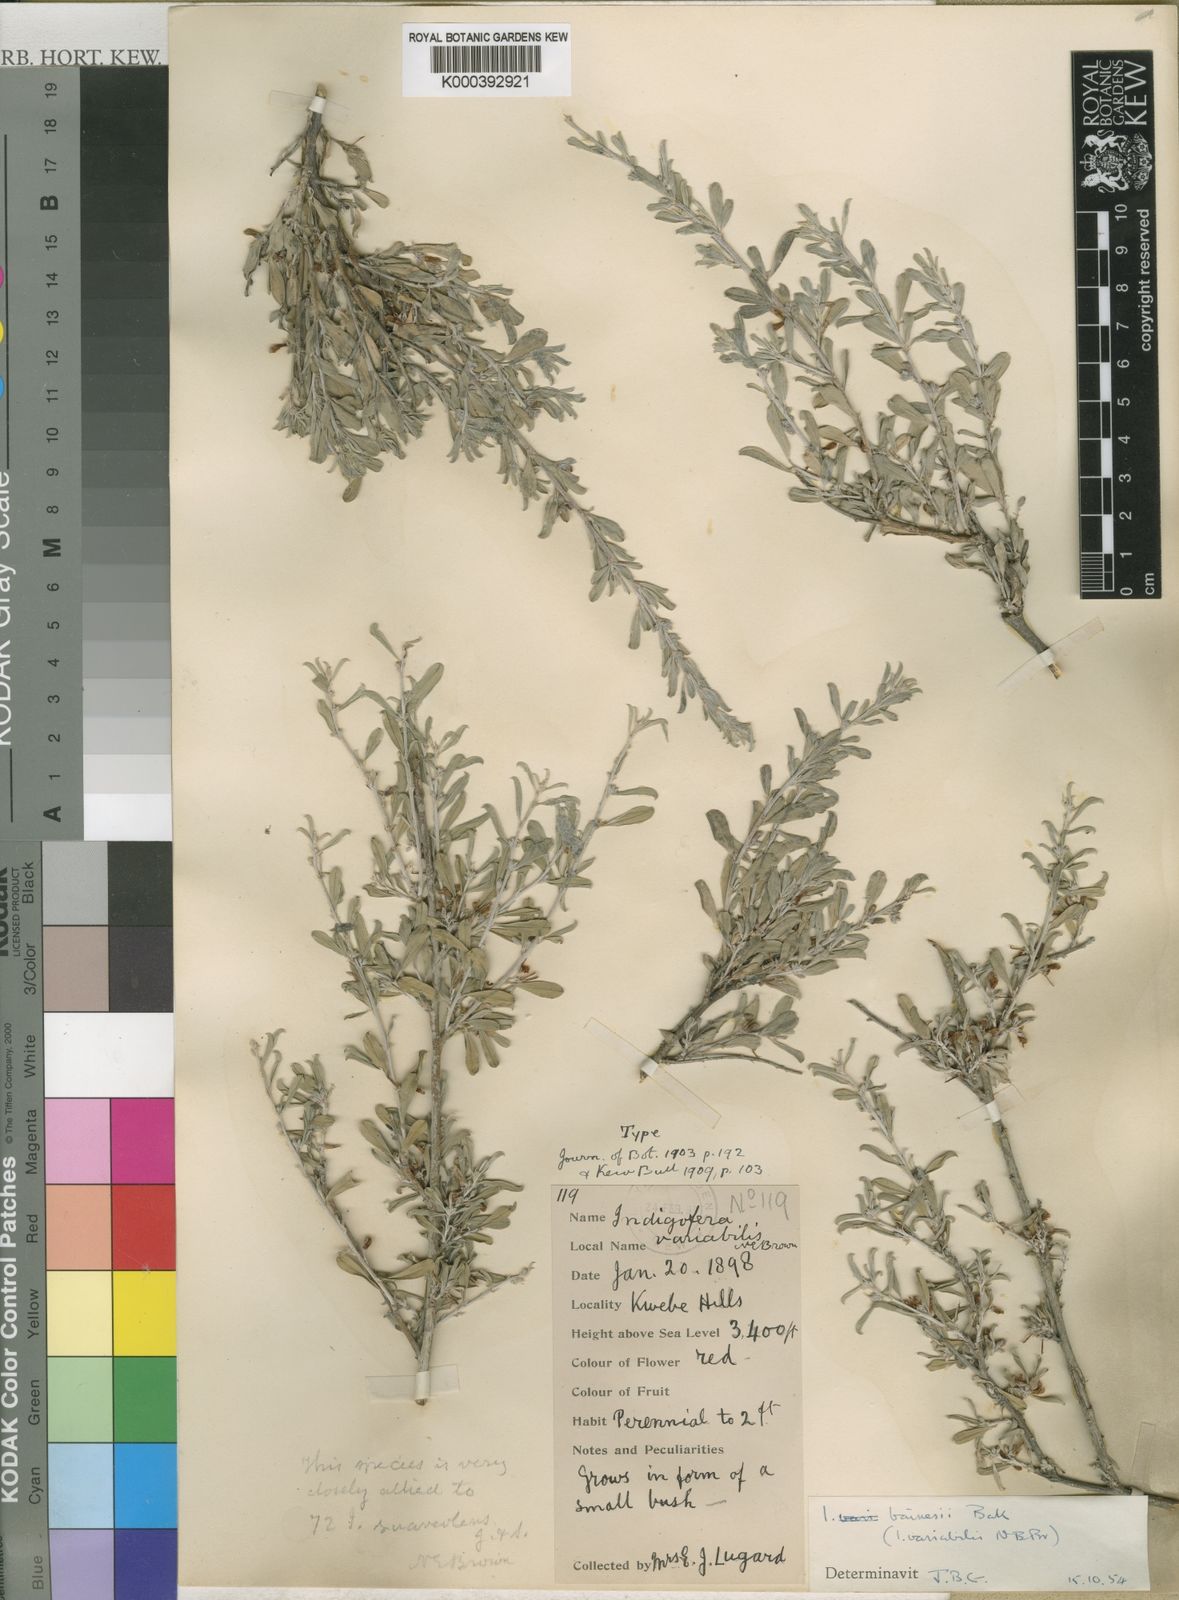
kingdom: Plantae
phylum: Tracheophyta
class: Magnoliopsida
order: Fabales
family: Fabaceae
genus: Indigofera
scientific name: Indigofera bainesii
